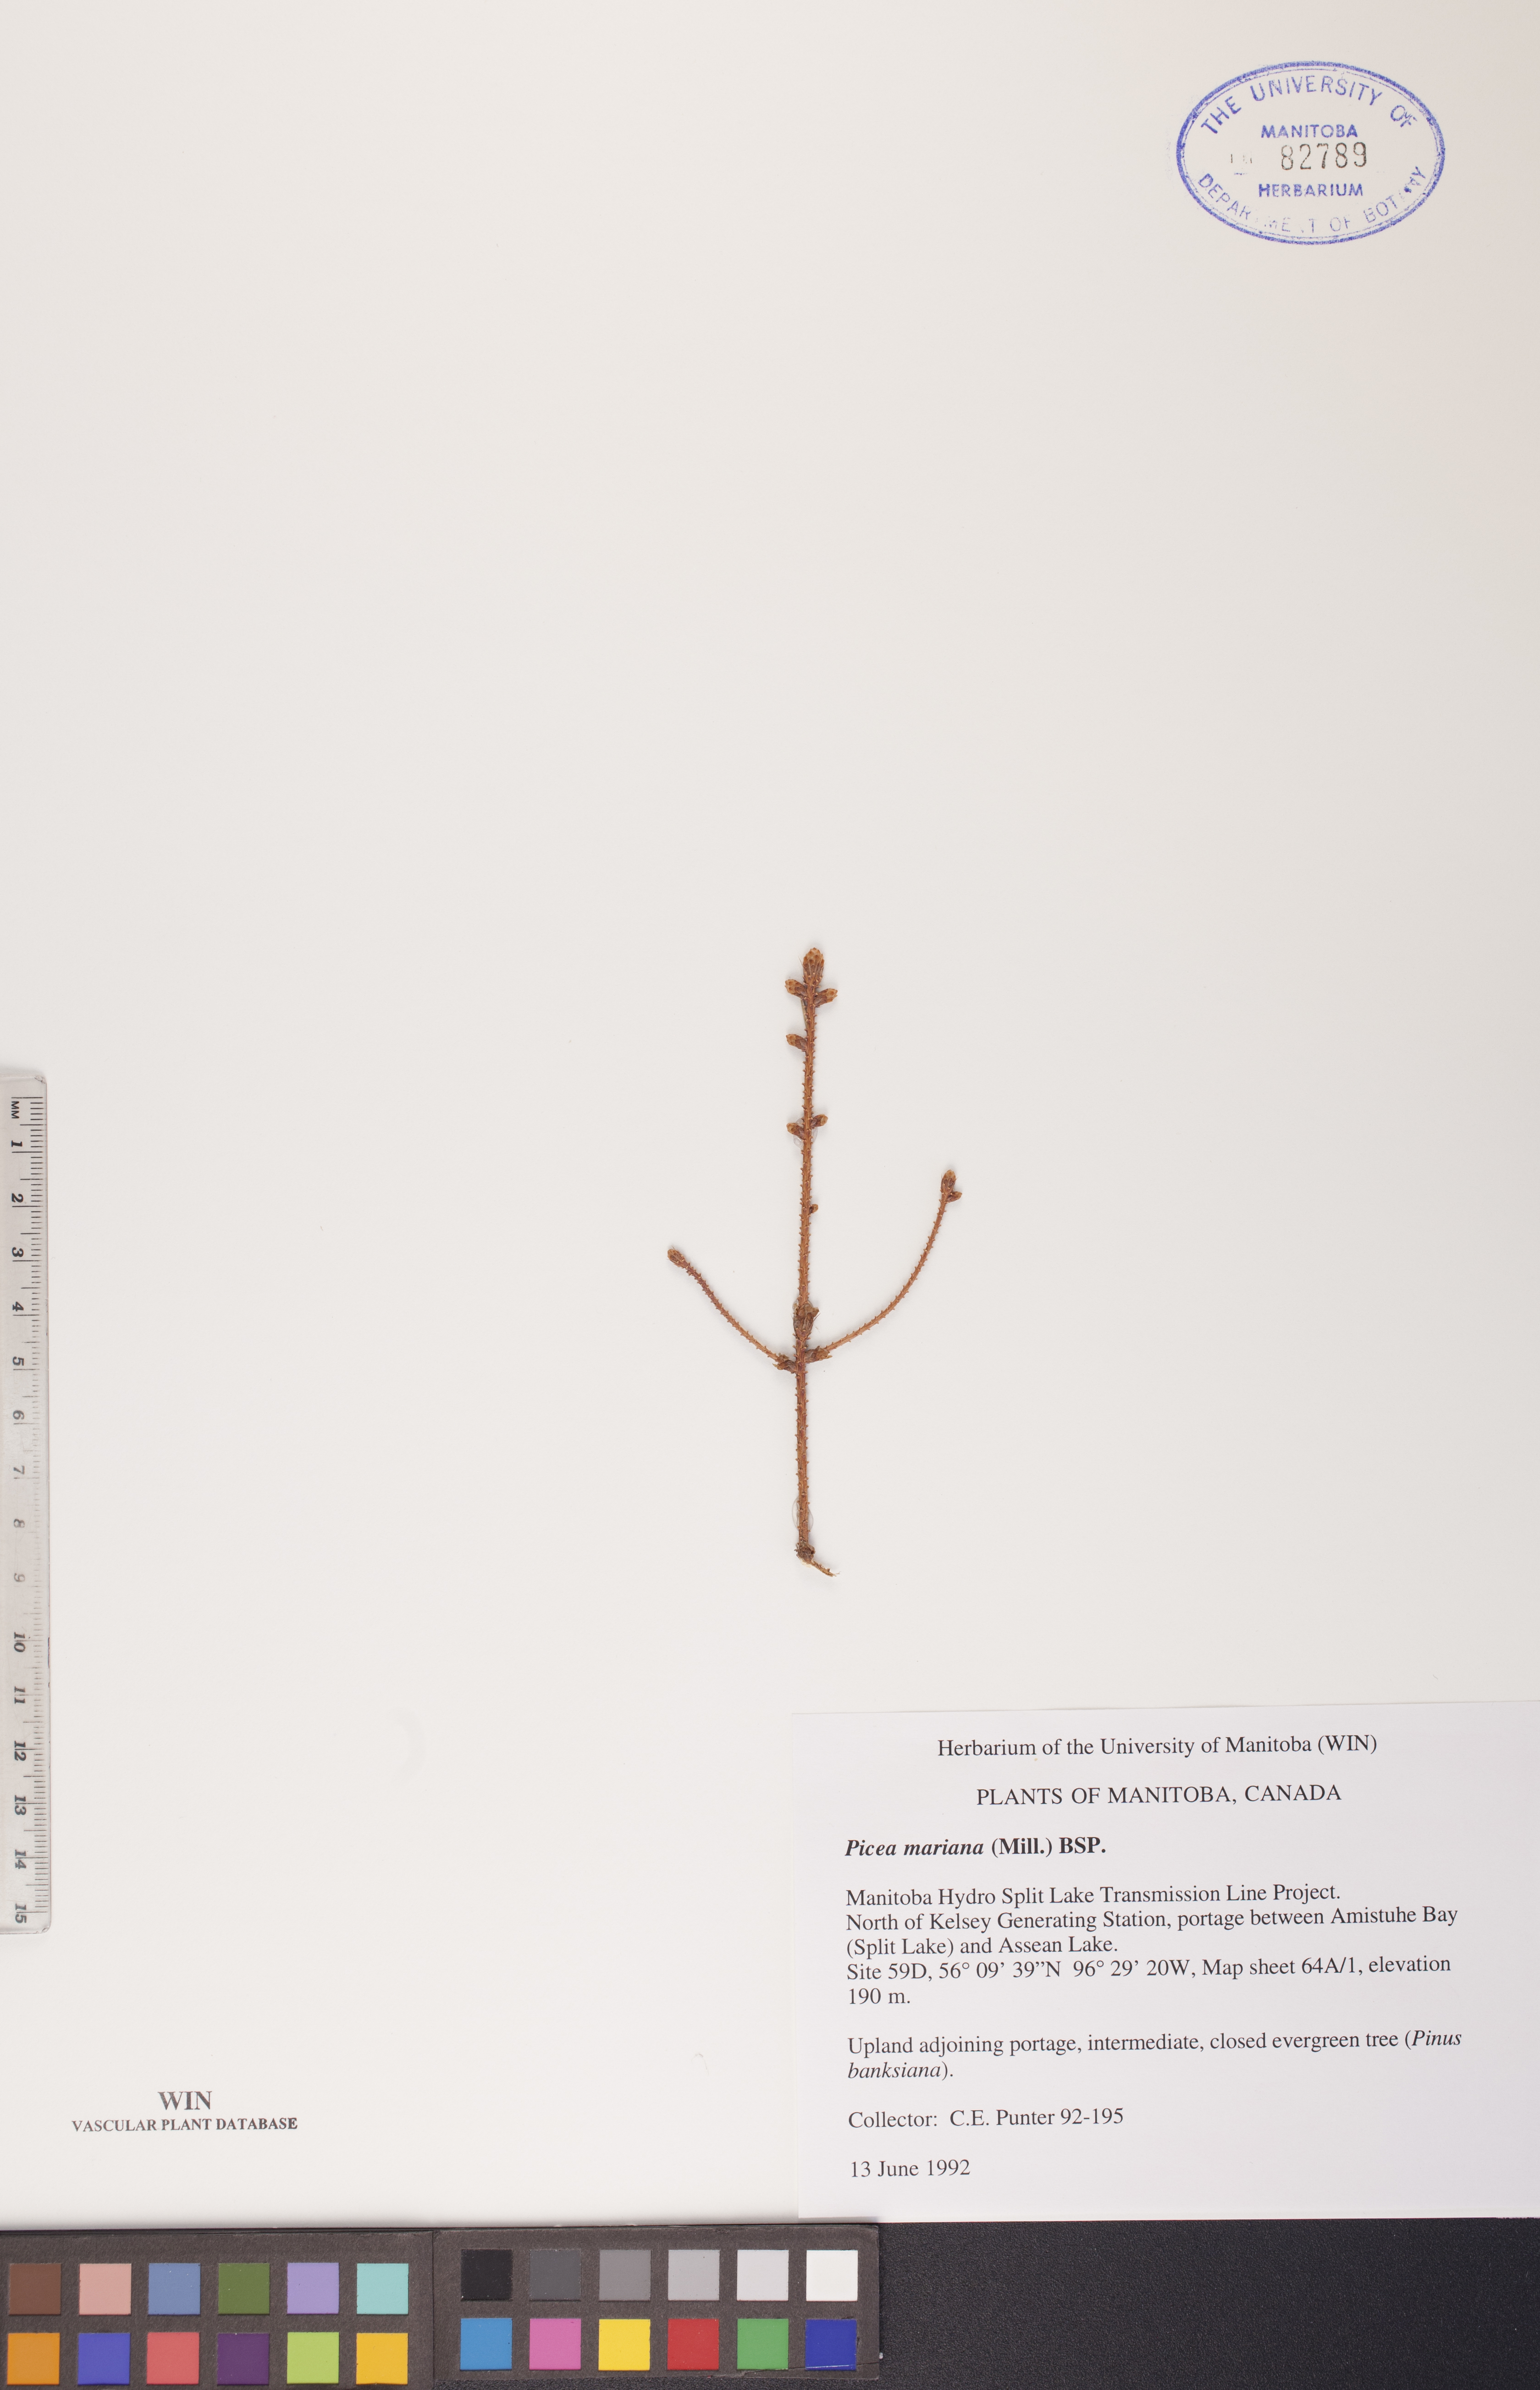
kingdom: Plantae
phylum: Tracheophyta
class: Pinopsida
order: Pinales
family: Pinaceae
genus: Picea
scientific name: Picea mariana
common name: Black spruce
